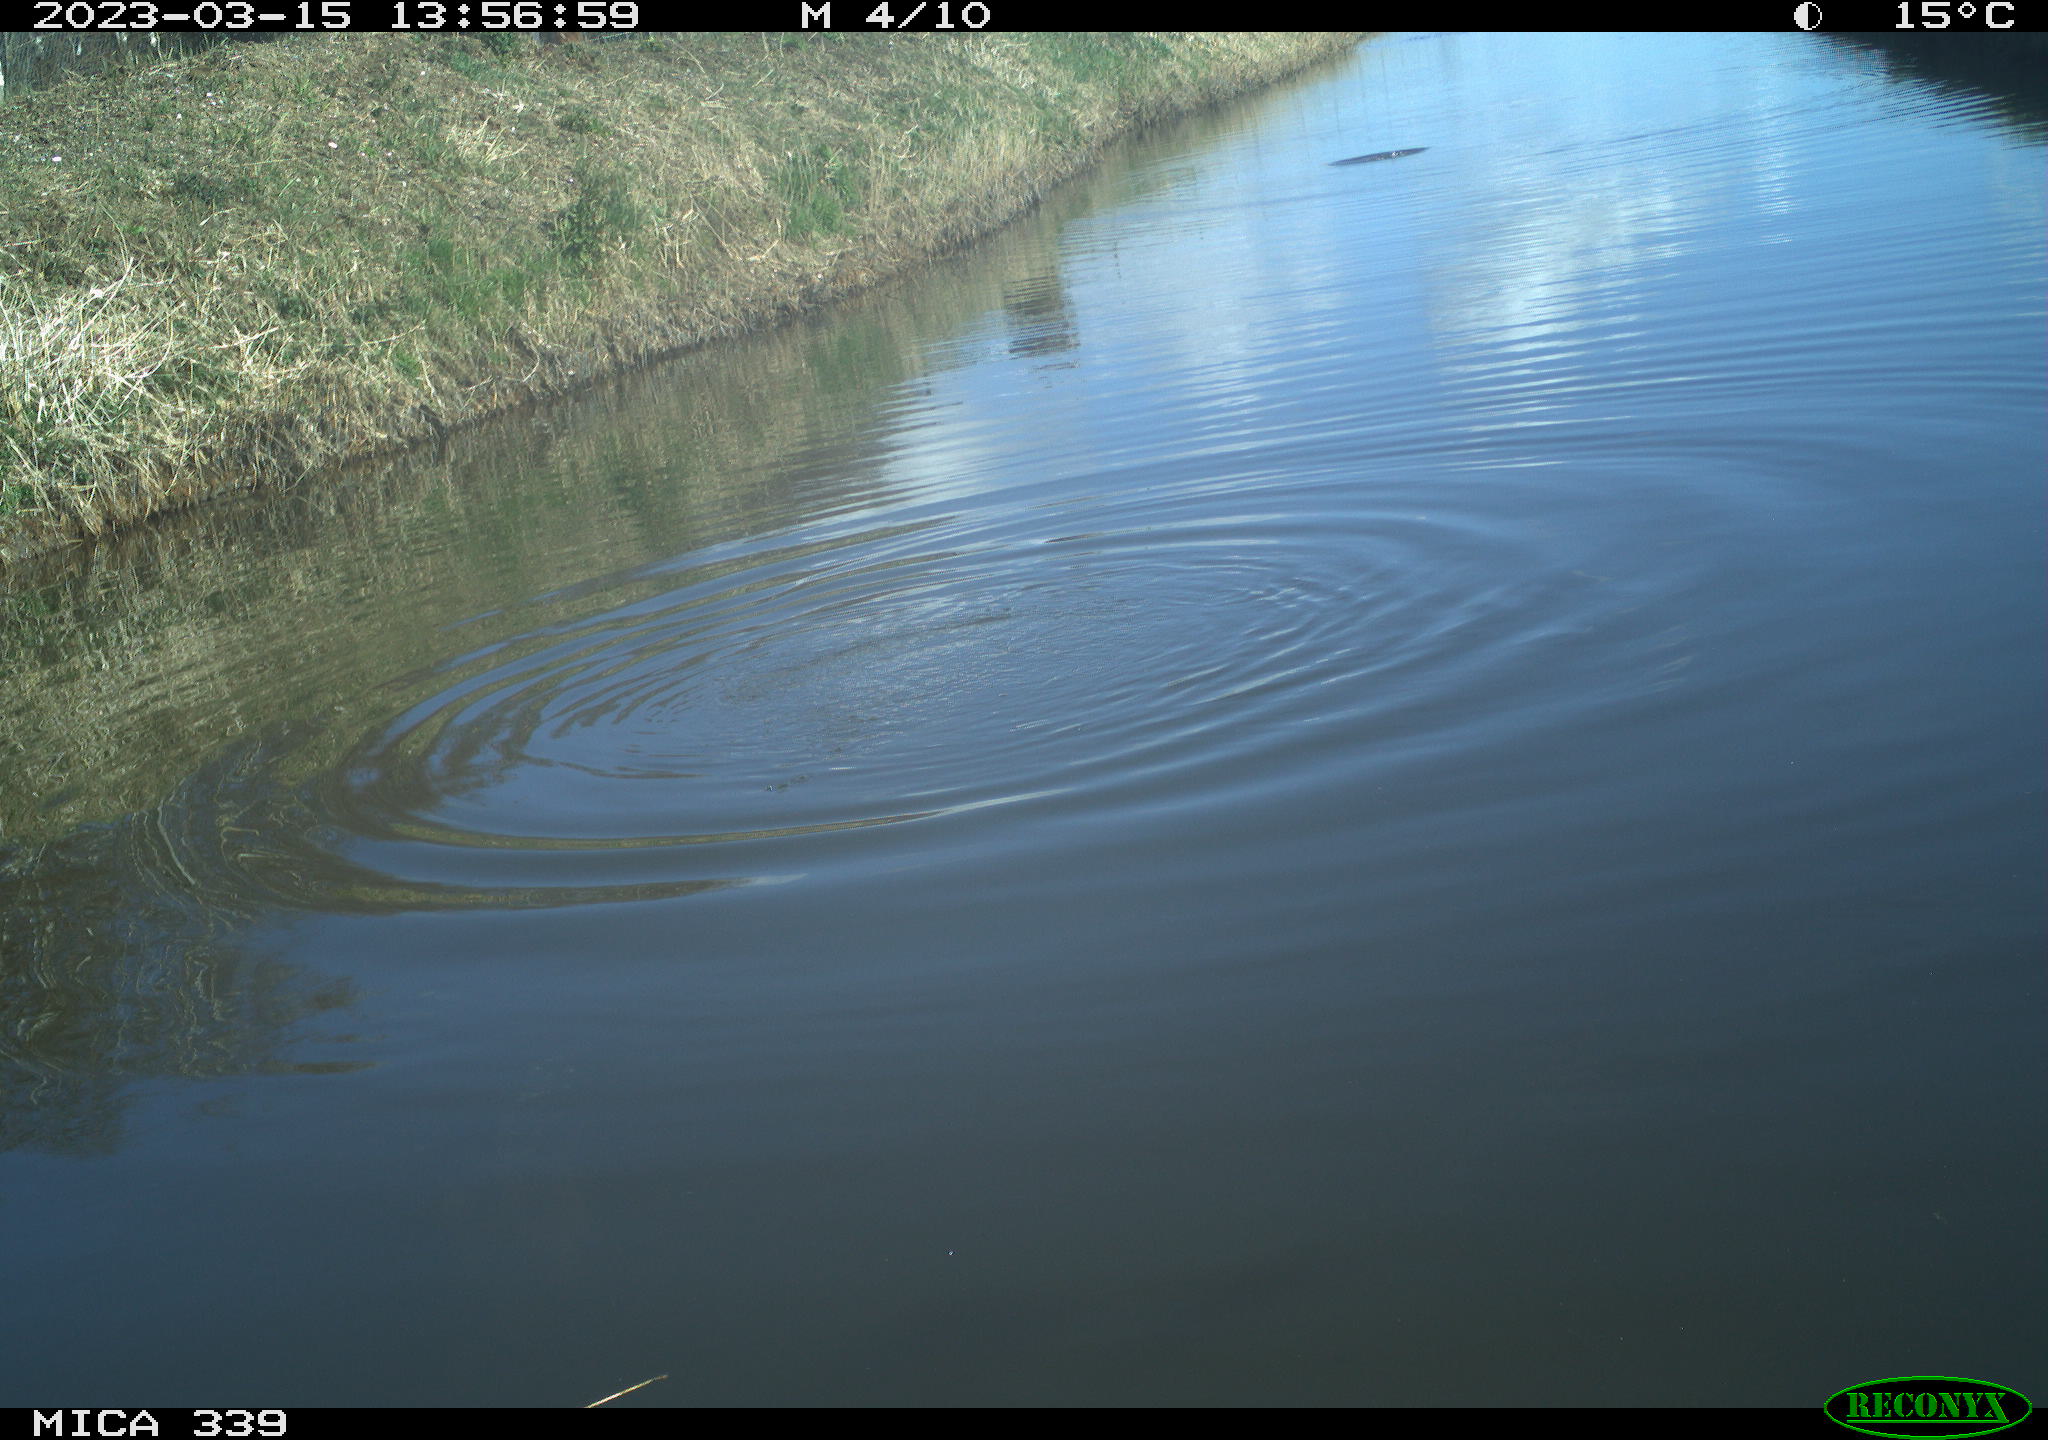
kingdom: Animalia
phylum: Chordata
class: Aves
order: Gruiformes
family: Rallidae
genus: Fulica
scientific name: Fulica atra
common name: Eurasian coot
